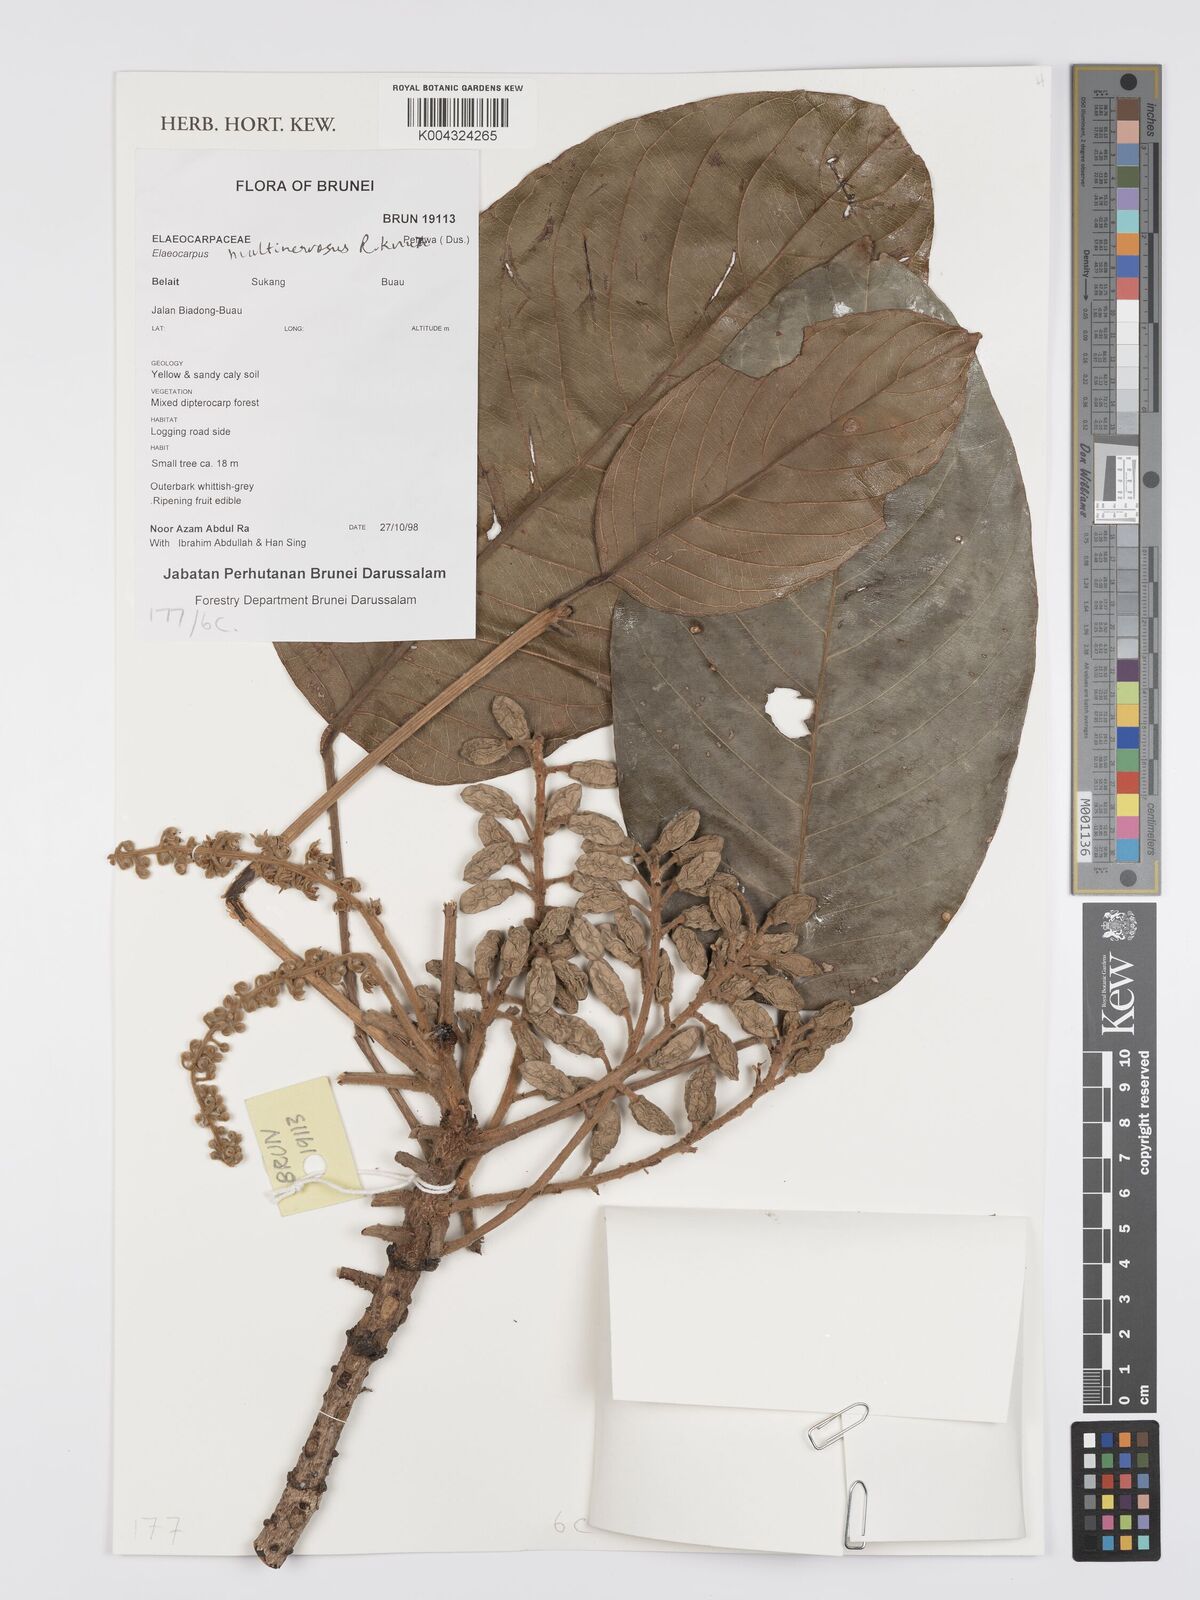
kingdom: Plantae
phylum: Tracheophyta
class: Magnoliopsida
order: Oxalidales
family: Elaeocarpaceae
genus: Elaeocarpus
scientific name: Elaeocarpus multinervosus
